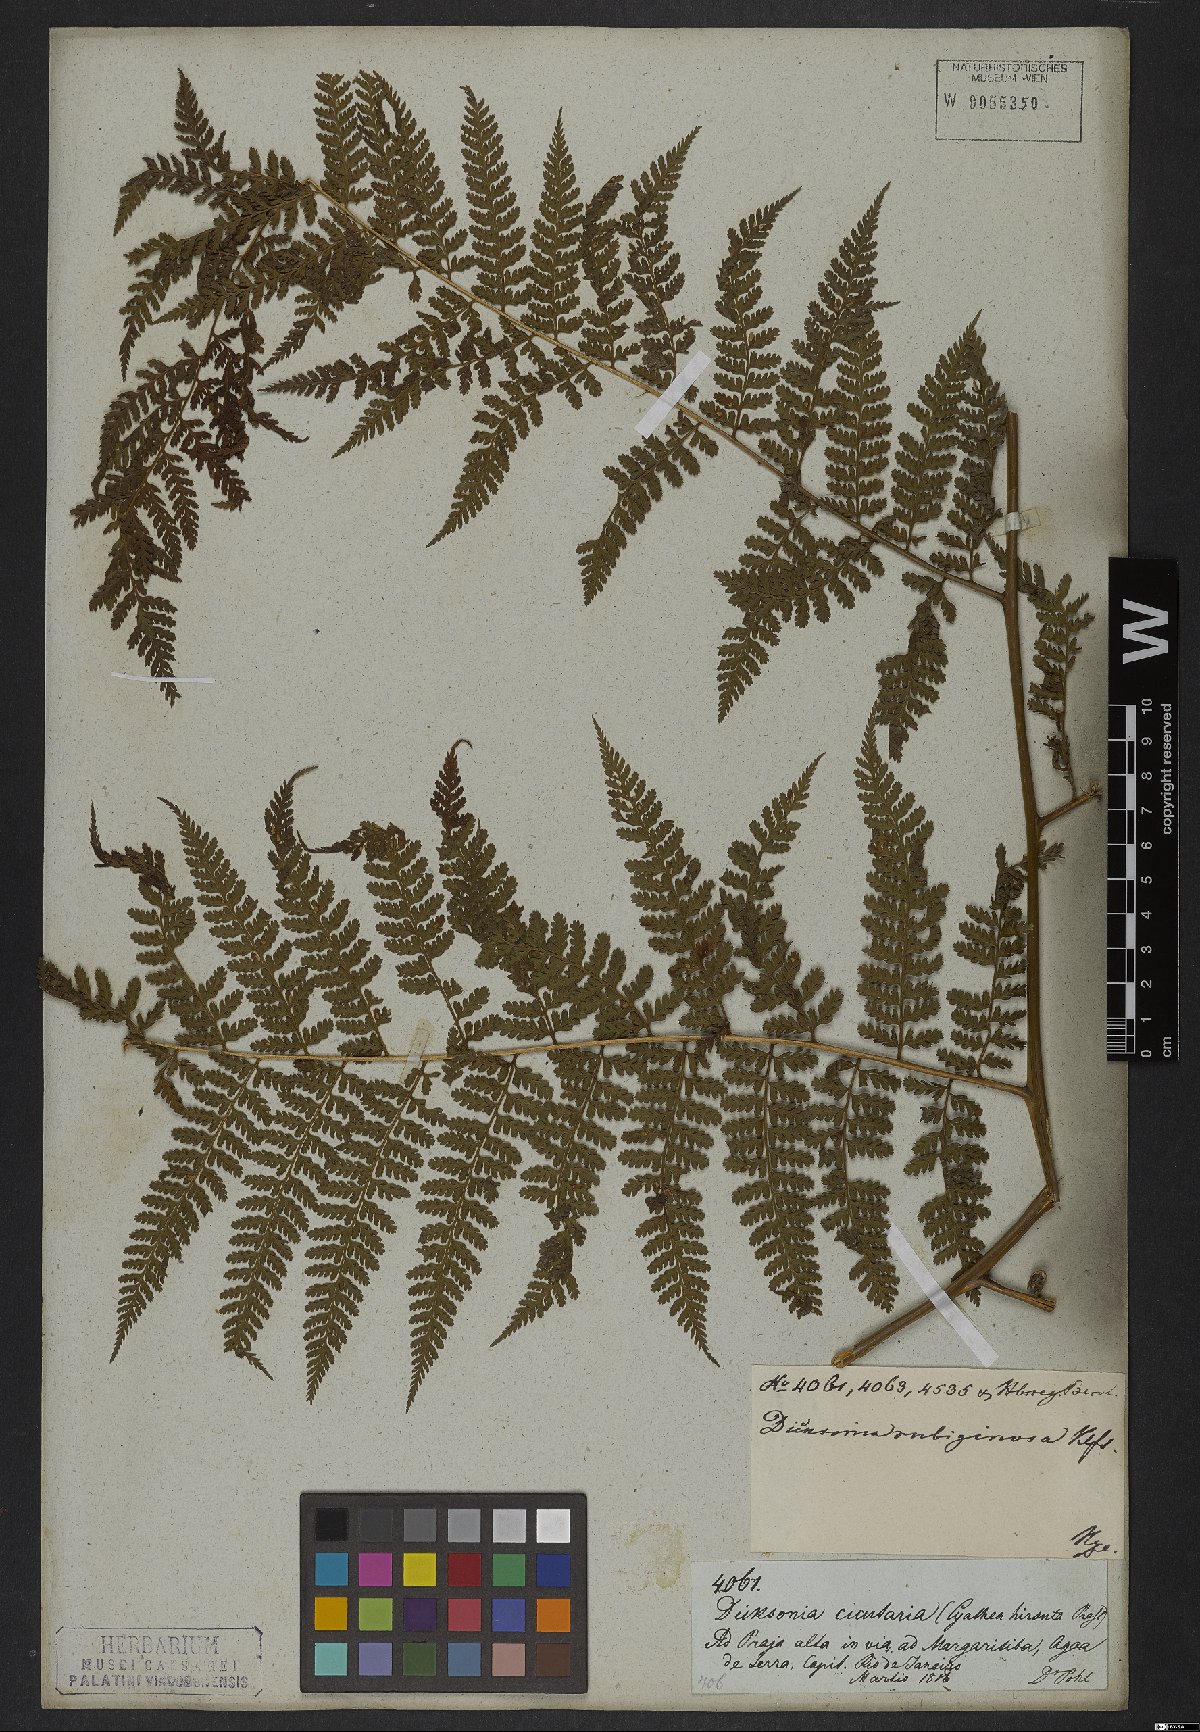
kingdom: Plantae
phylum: Tracheophyta
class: Polypodiopsida
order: Polypodiales
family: Dennstaedtiaceae
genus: Dennstaedtia
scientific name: Dennstaedtia cicutaria
